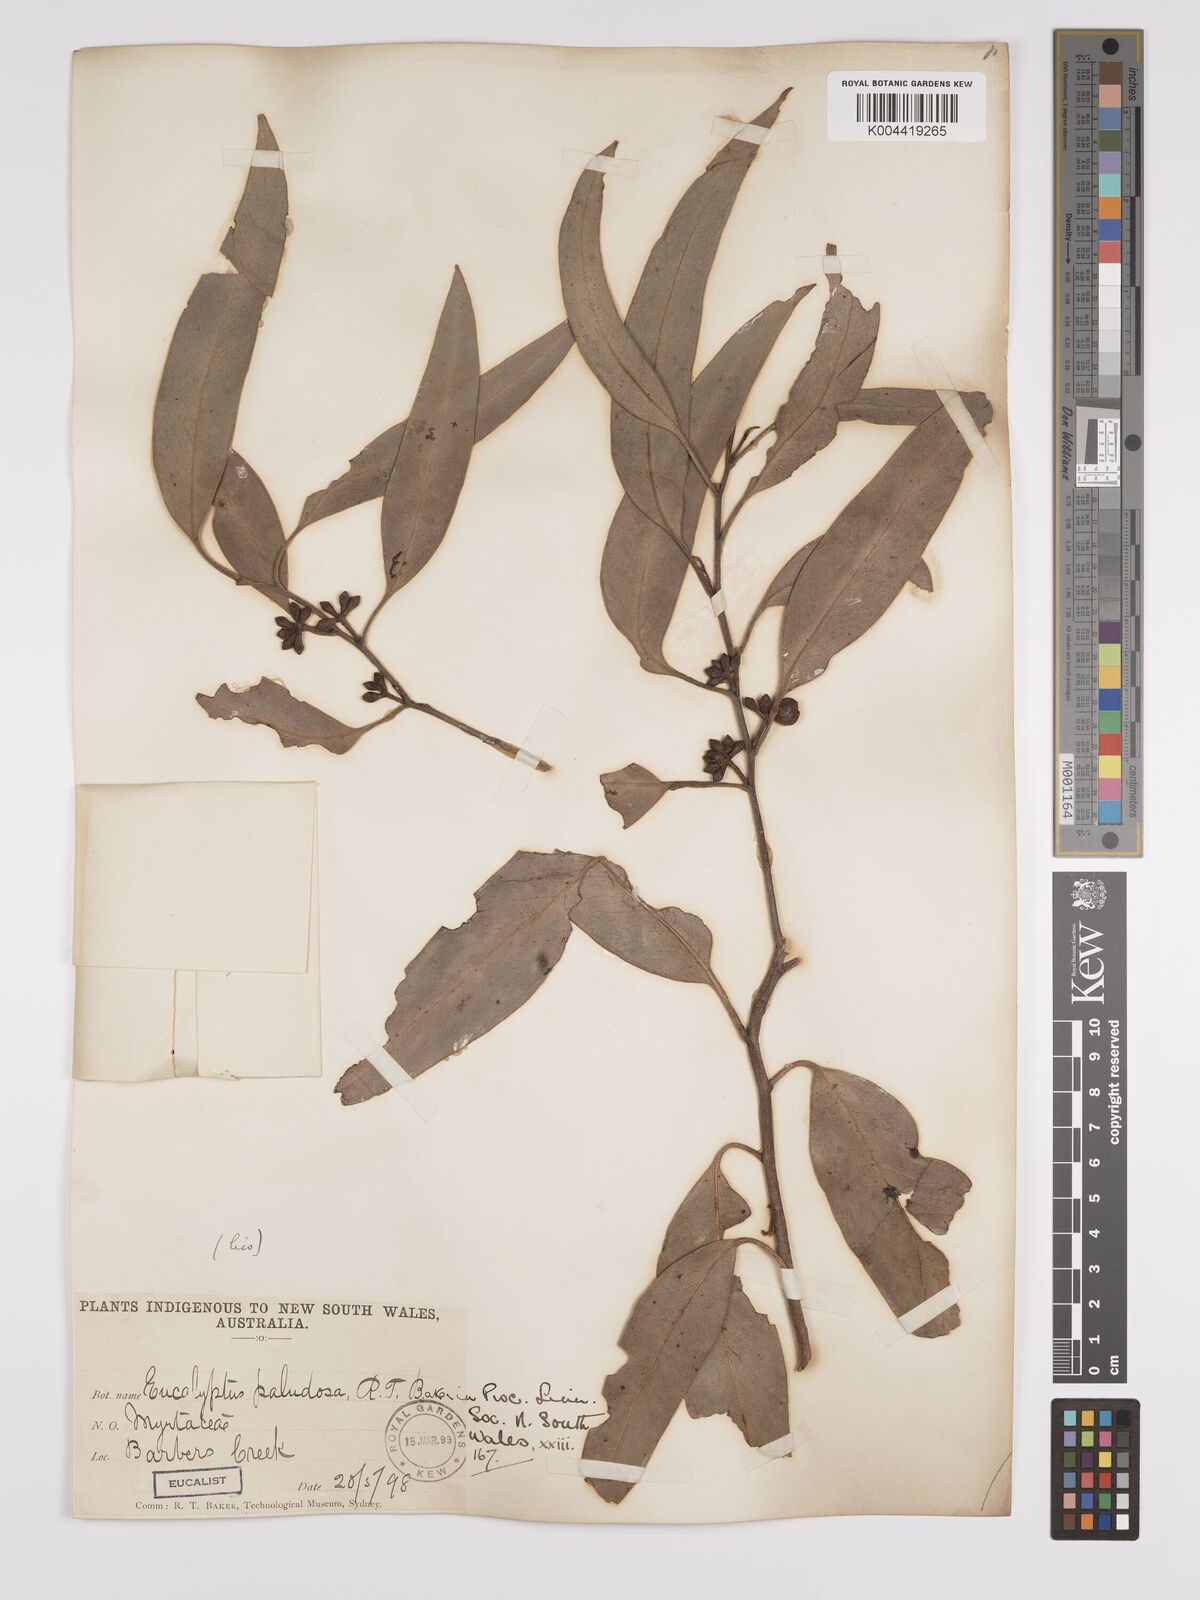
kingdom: Plantae
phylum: Tracheophyta
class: Magnoliopsida
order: Myrtales
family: Myrtaceae
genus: Eucalyptus
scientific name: Eucalyptus ovata
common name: Black-gum
